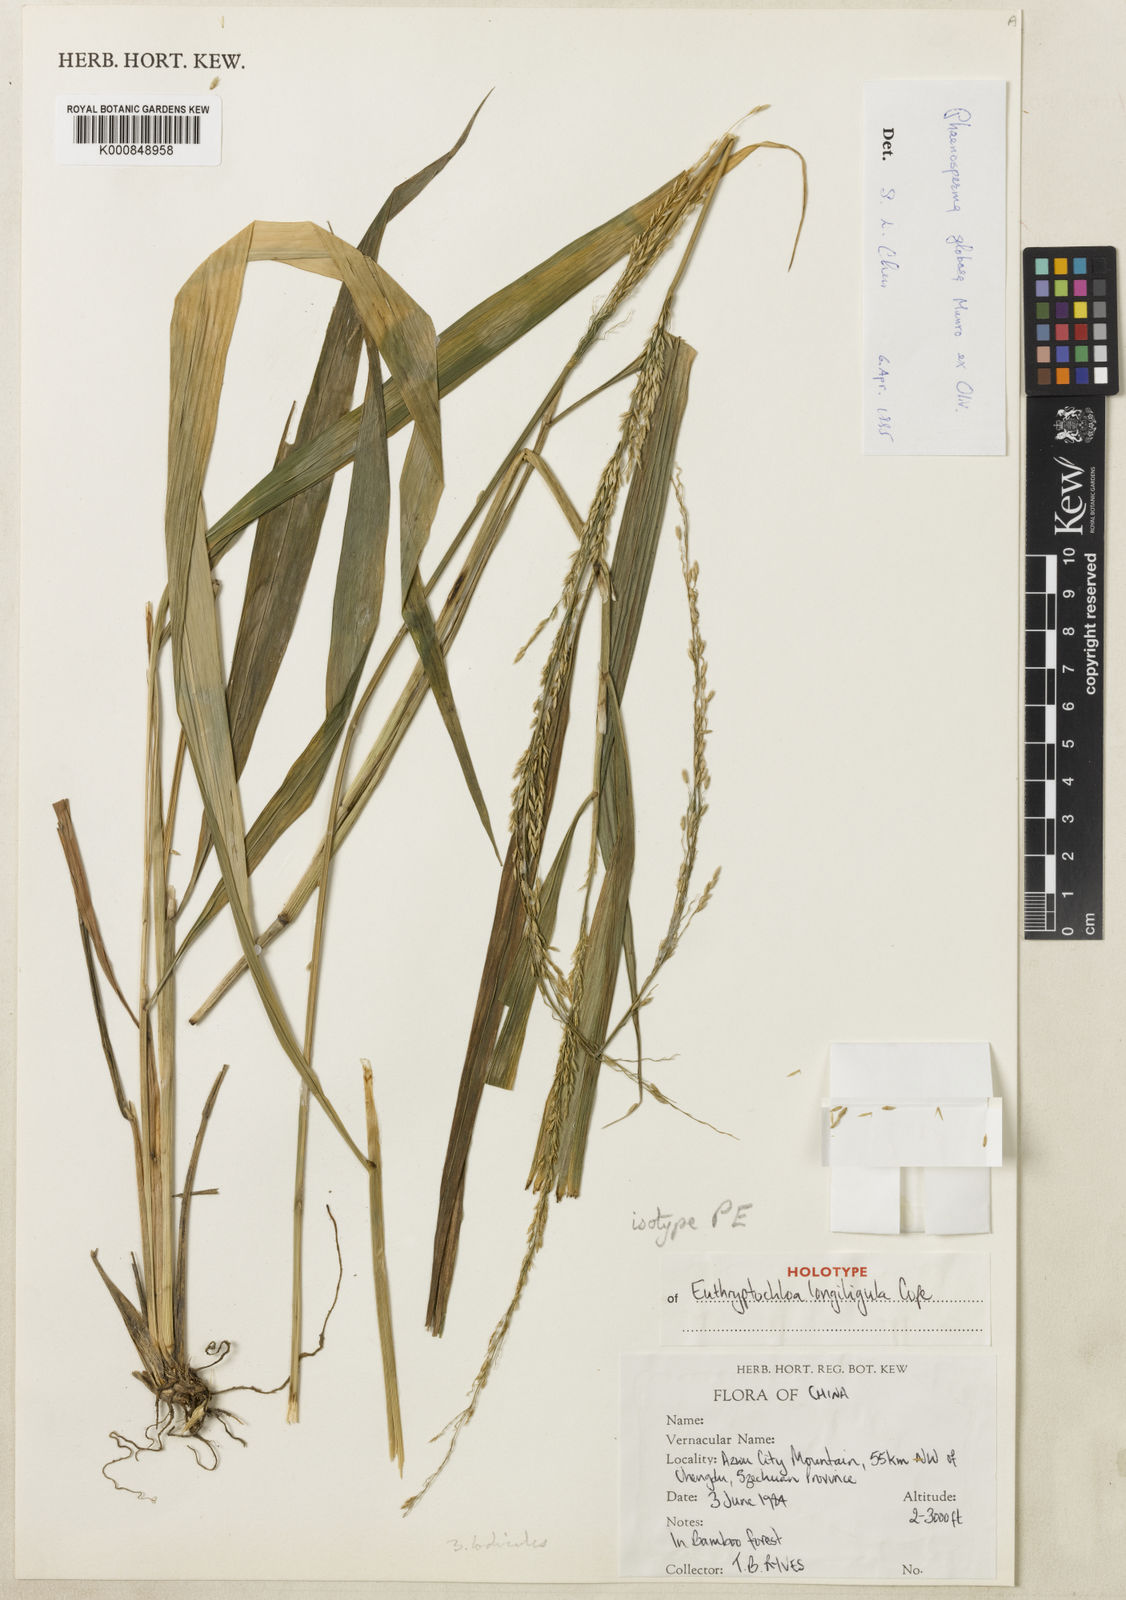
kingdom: Plantae
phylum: Tracheophyta
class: Liliopsida
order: Poales
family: Poaceae
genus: Phaenosperma
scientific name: Phaenosperma
